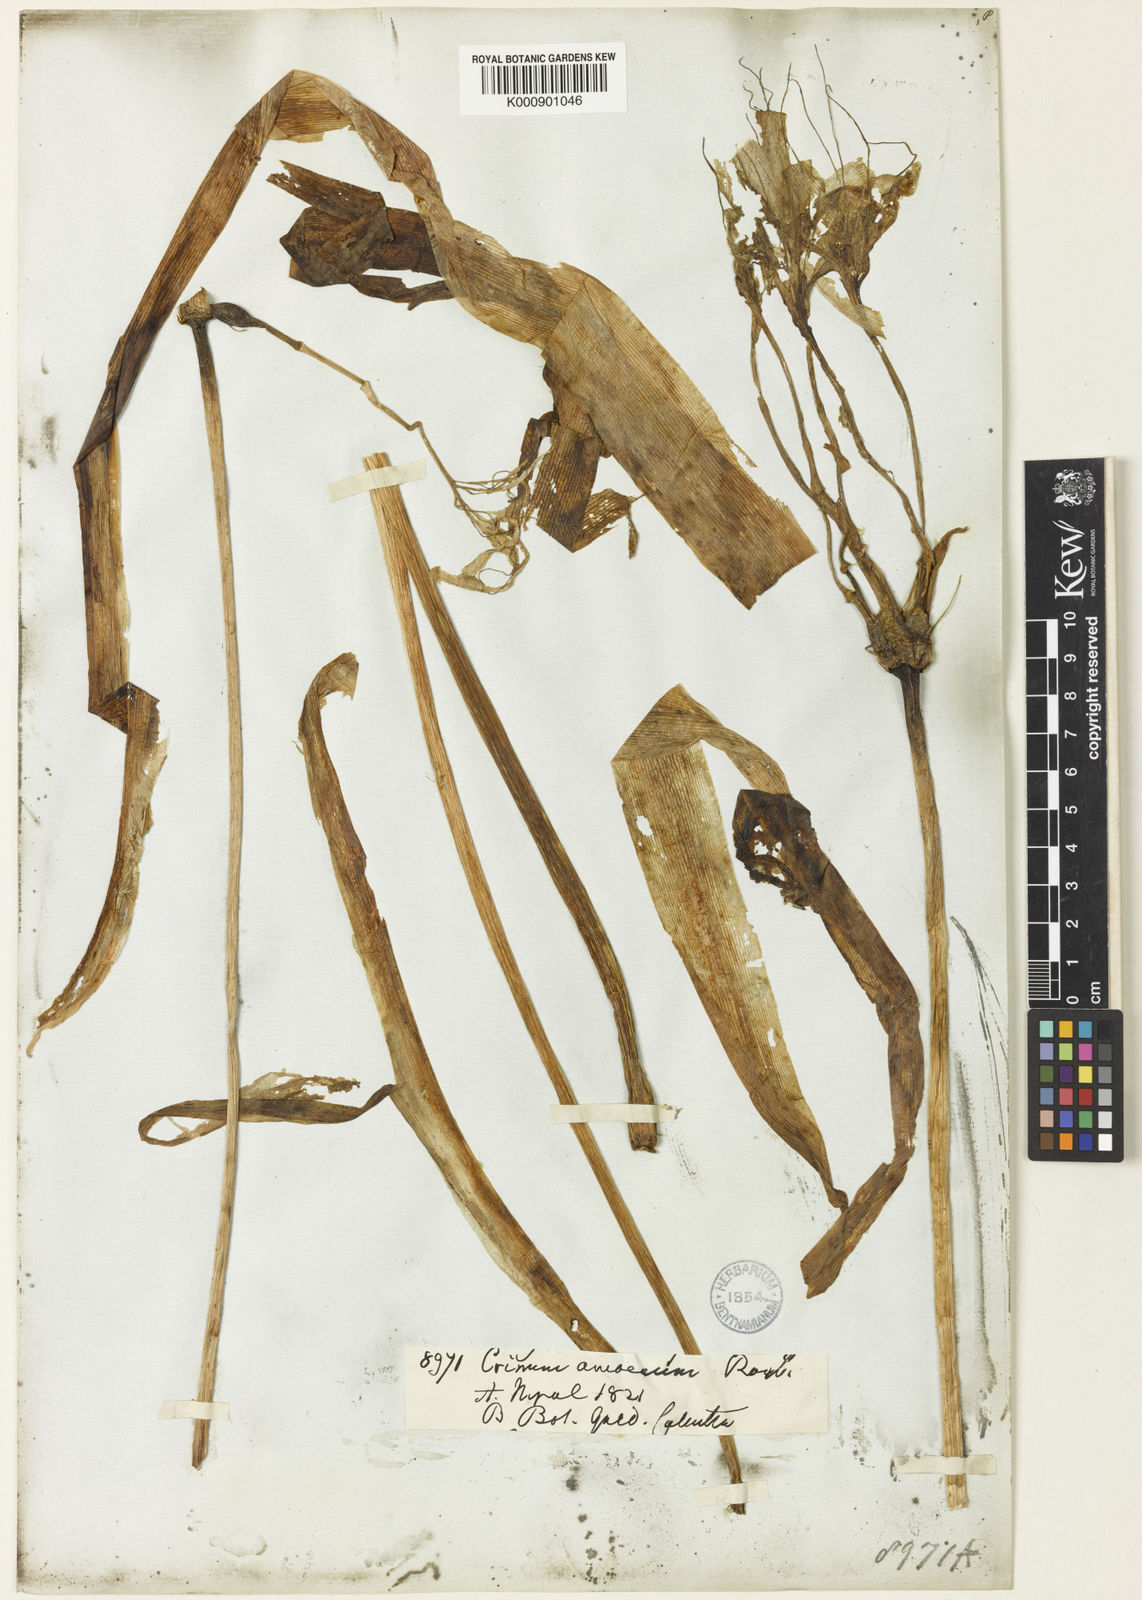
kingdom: Plantae
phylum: Tracheophyta
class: Liliopsida
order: Asparagales
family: Amaryllidaceae
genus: Crinum
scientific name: Crinum amoenum
